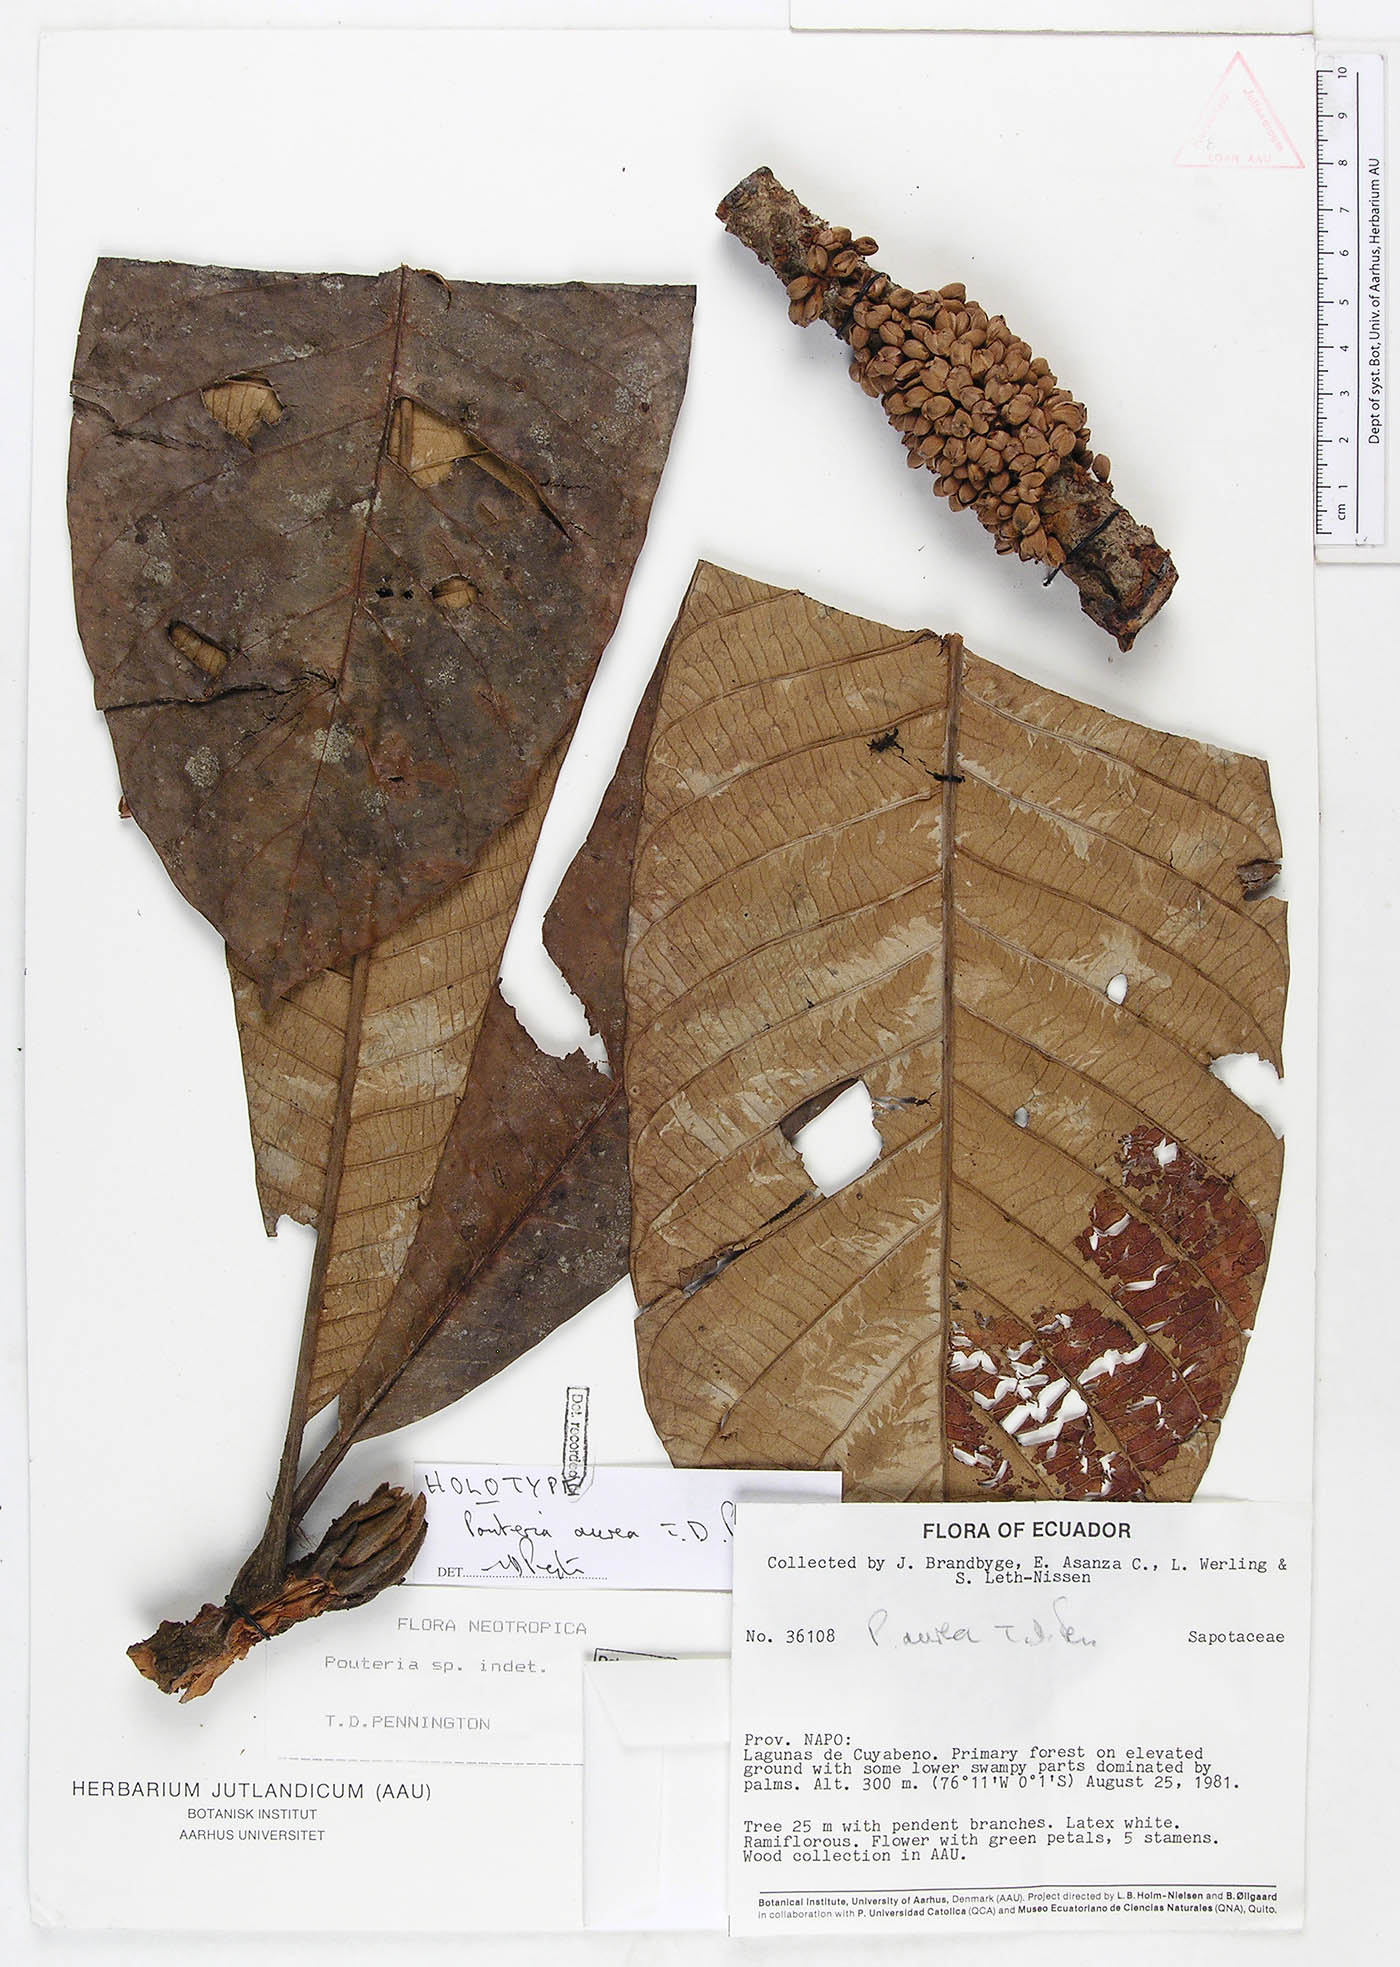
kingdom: Plantae
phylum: Tracheophyta
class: Magnoliopsida
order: Ericales
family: Sapotaceae
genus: Pouteria
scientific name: Pouteria aurea
